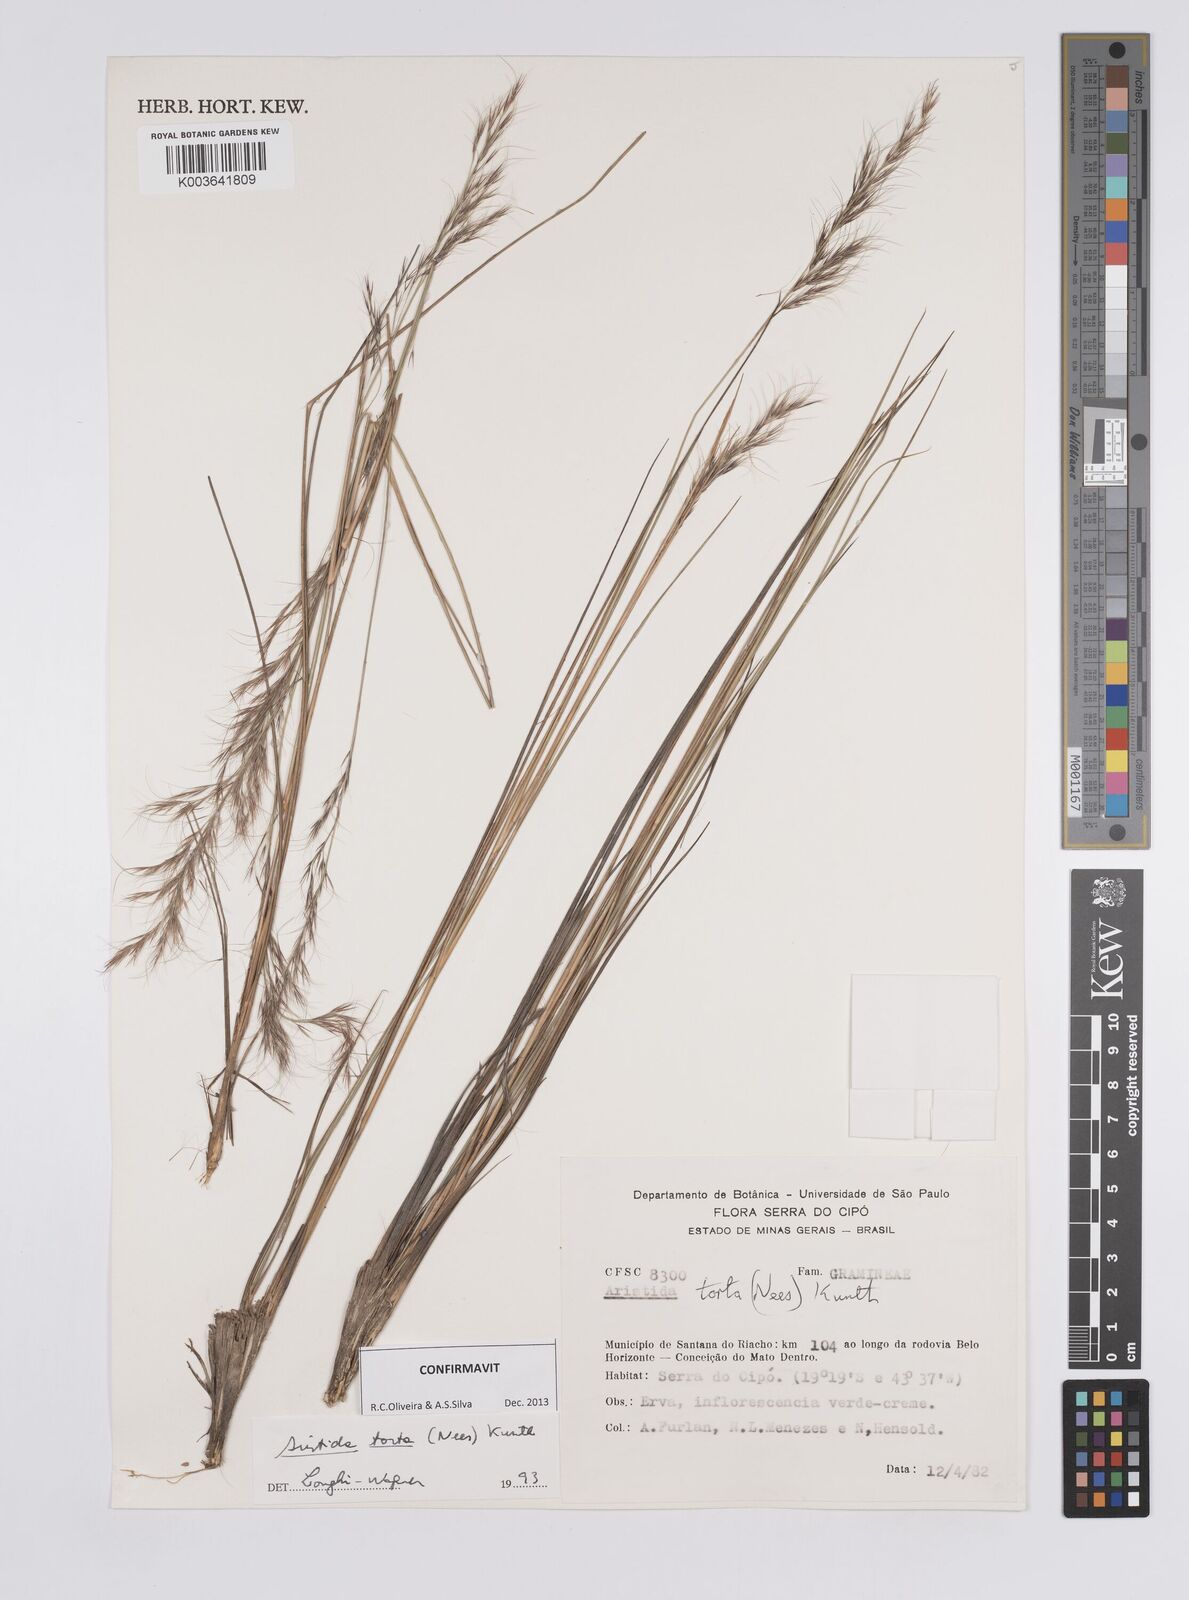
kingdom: Plantae
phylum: Tracheophyta
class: Liliopsida
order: Poales
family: Poaceae
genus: Aristida
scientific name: Aristida torta
